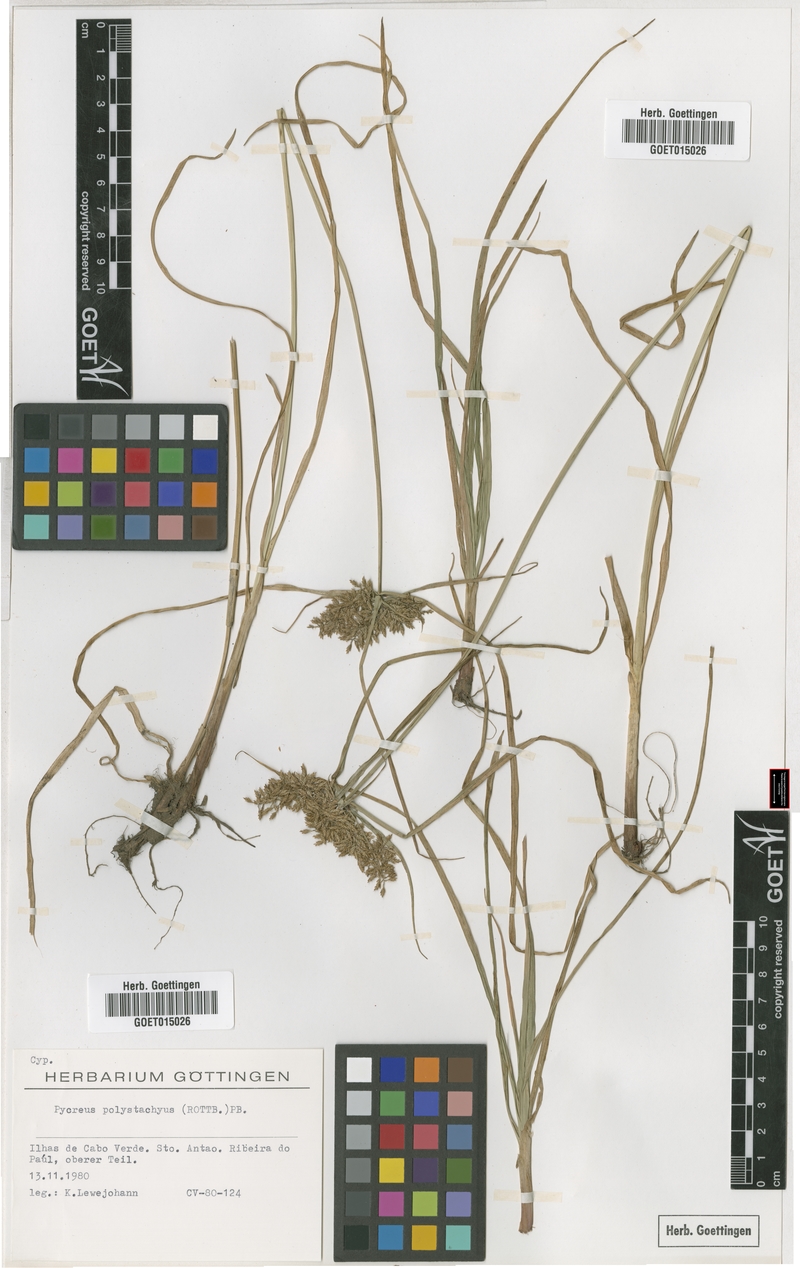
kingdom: Plantae
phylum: Tracheophyta
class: Liliopsida
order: Poales
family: Cyperaceae
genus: Cyperus
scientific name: Cyperus polystachyos
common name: Bunchy flat sedge
